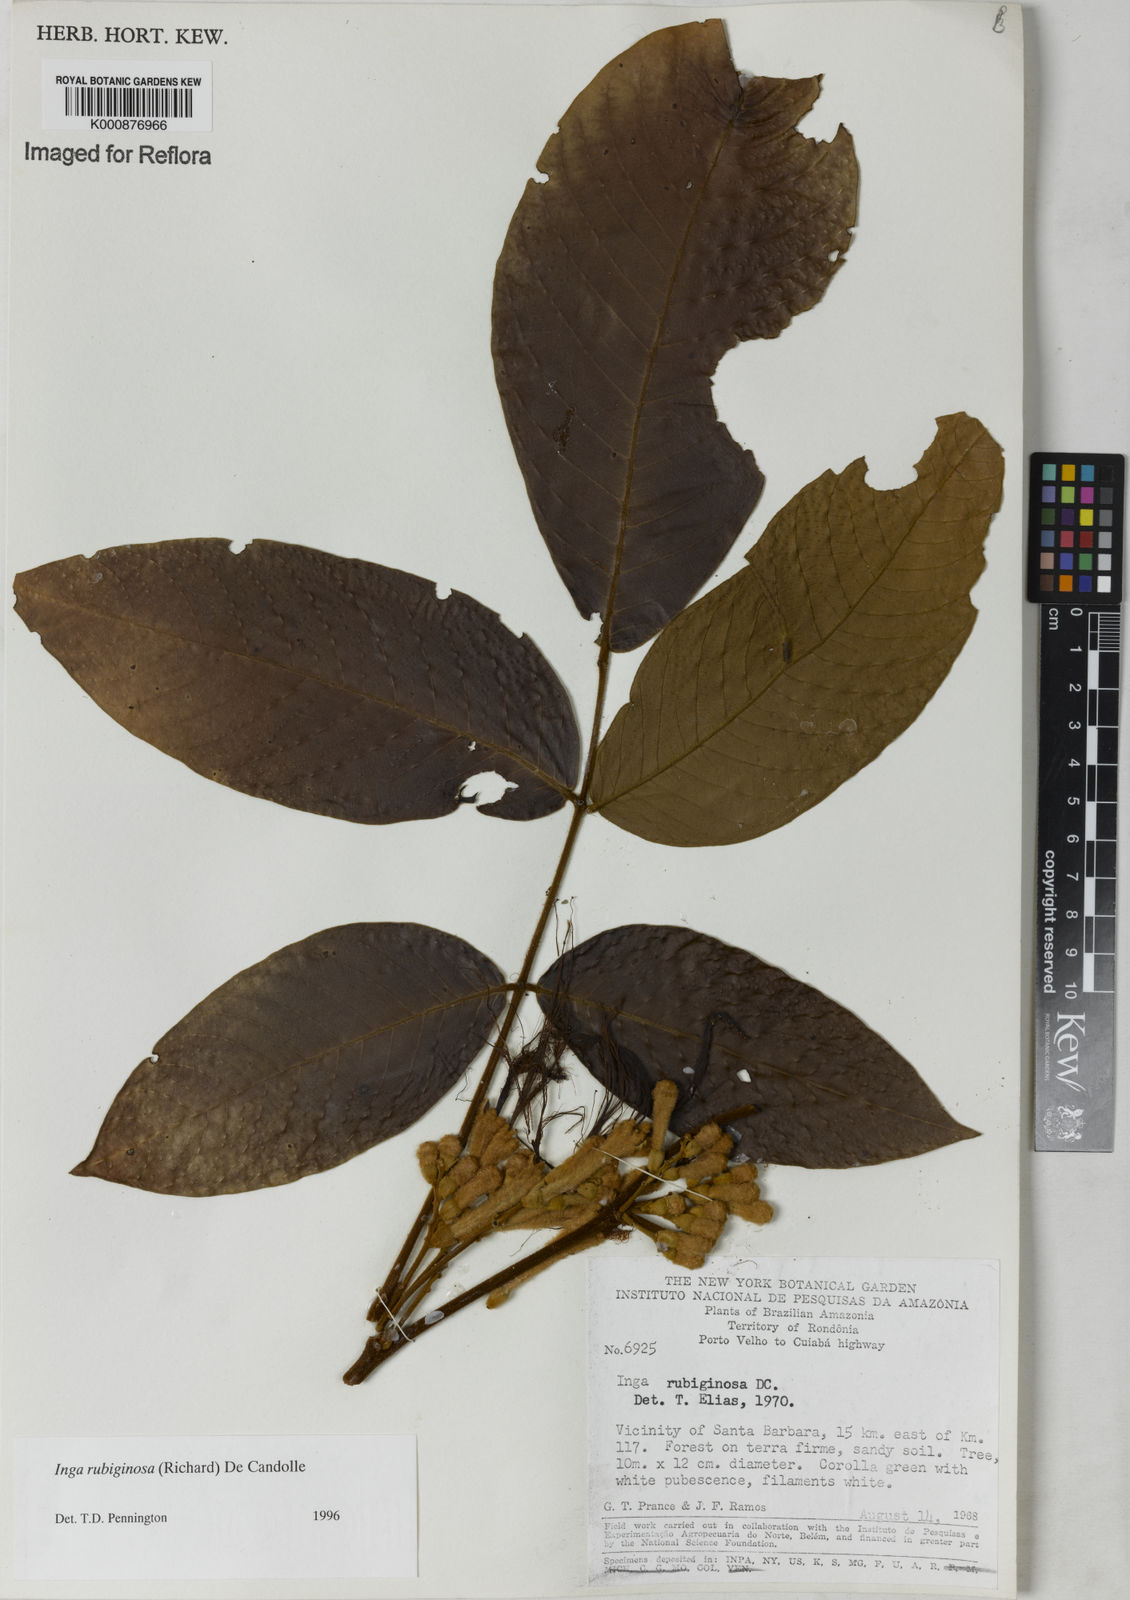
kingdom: Plantae
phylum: Tracheophyta
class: Magnoliopsida
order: Fabales
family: Fabaceae
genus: Inga
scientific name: Inga rubiginosa
